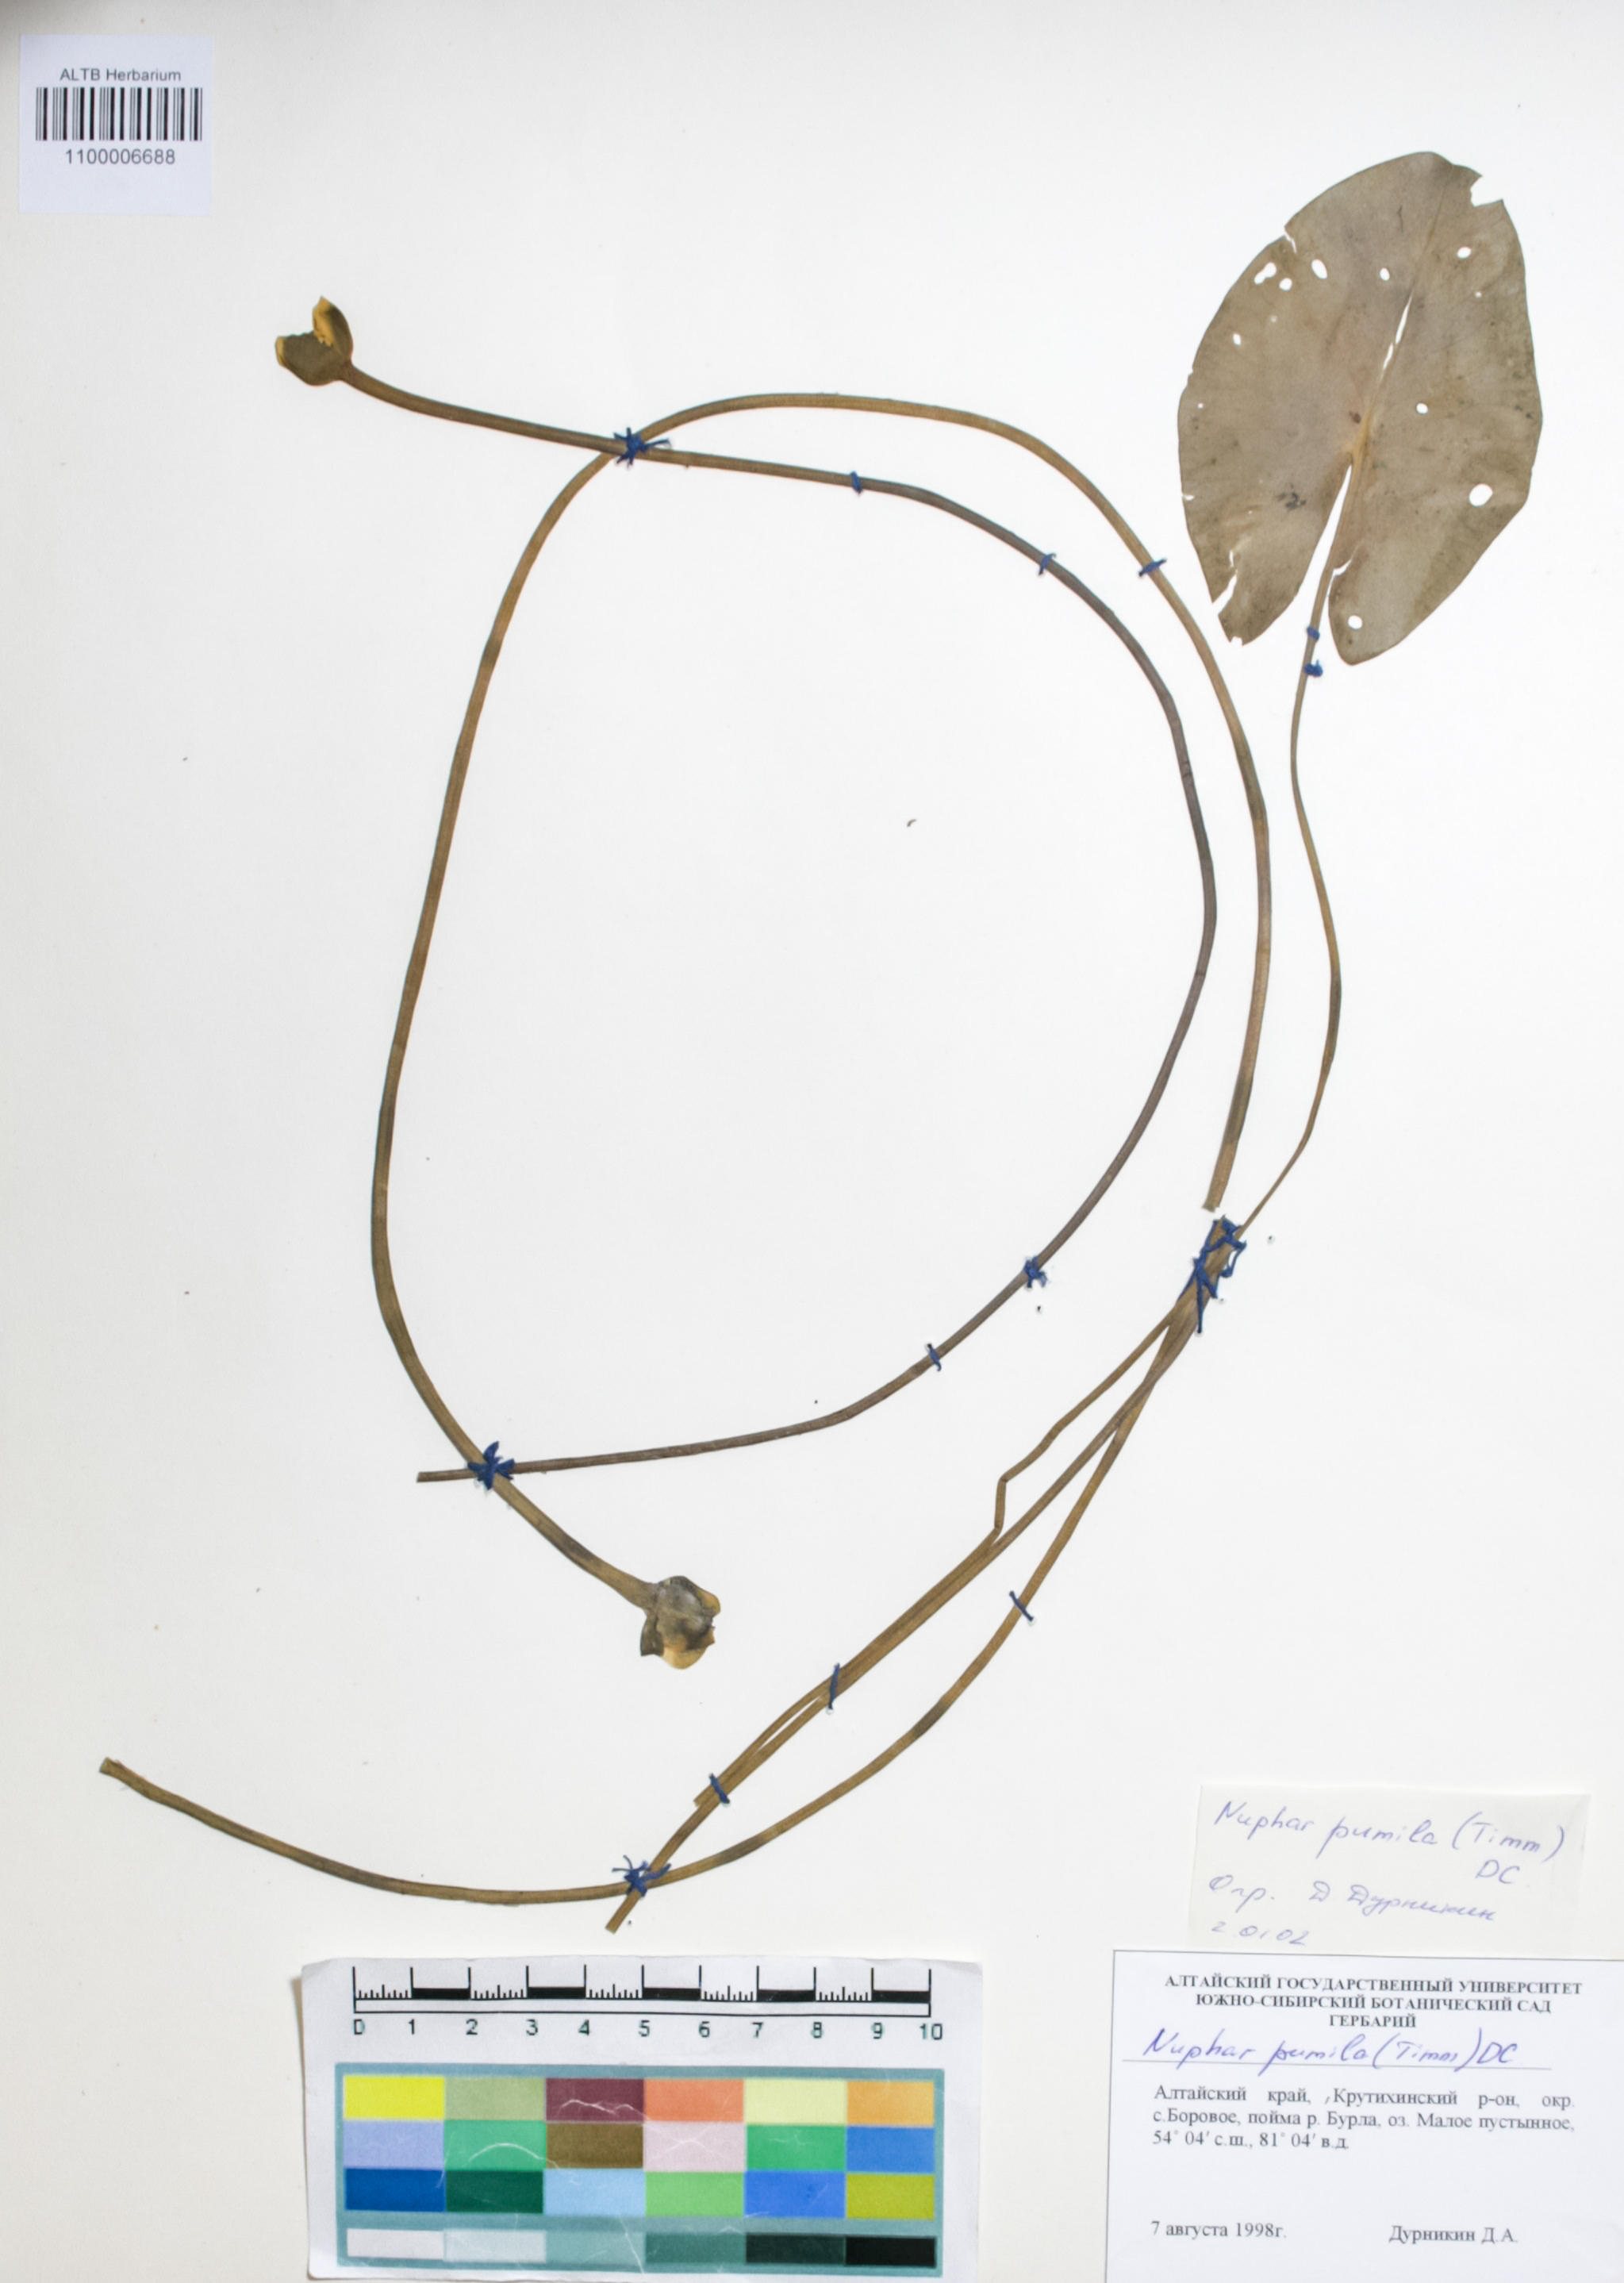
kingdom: Plantae
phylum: Tracheophyta
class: Magnoliopsida
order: Nymphaeales
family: Nymphaeaceae
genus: Nuphar
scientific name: Nuphar pumila
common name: Least water-lily
